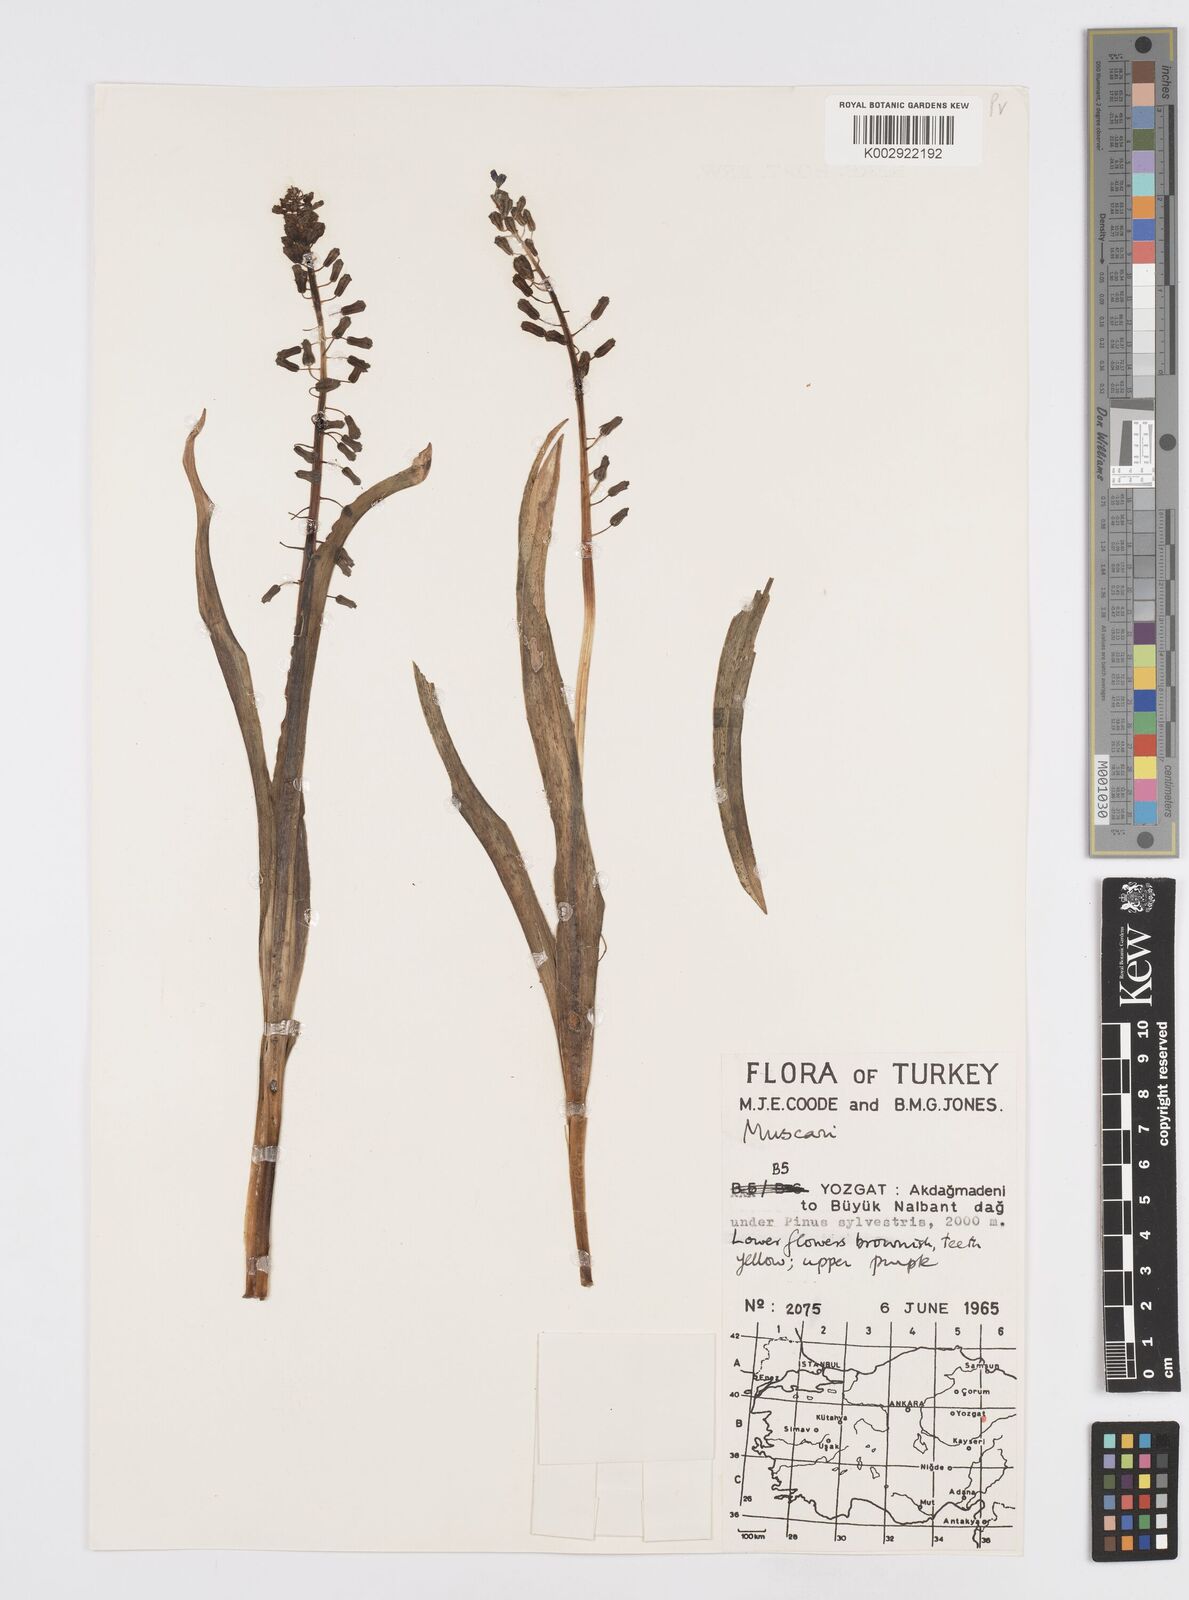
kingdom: Plantae
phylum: Tracheophyta
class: Liliopsida
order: Asparagales
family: Asparagaceae
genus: Muscari
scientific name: Muscari comosum
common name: Tassel hyacinth
